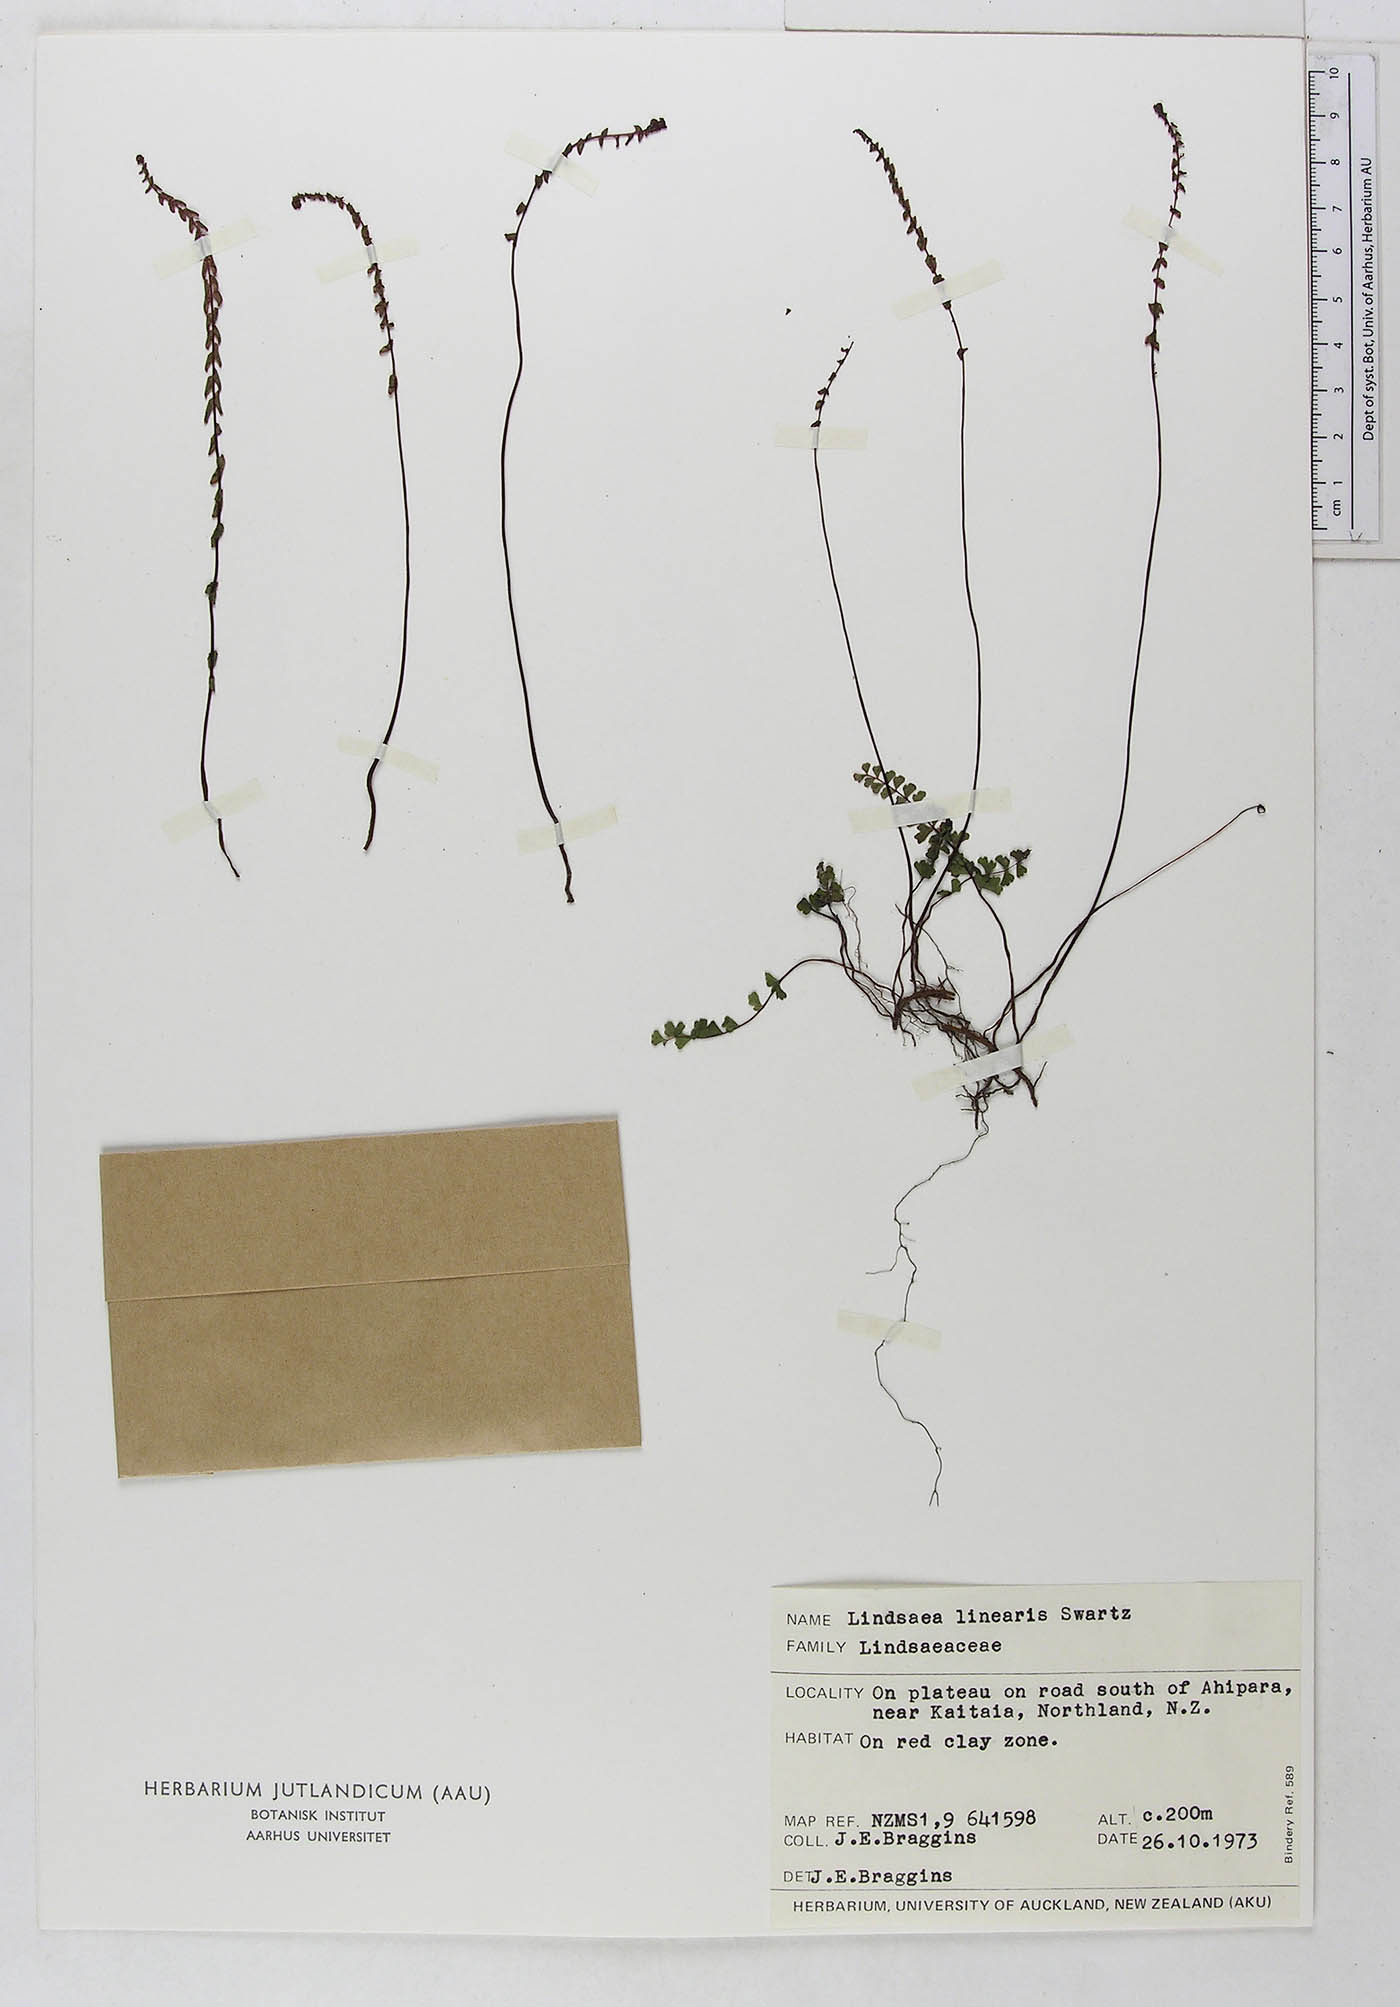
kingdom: Plantae
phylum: Tracheophyta
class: Polypodiopsida
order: Polypodiales
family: Lindsaeaceae
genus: Lindsaea
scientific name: Lindsaea linearis
